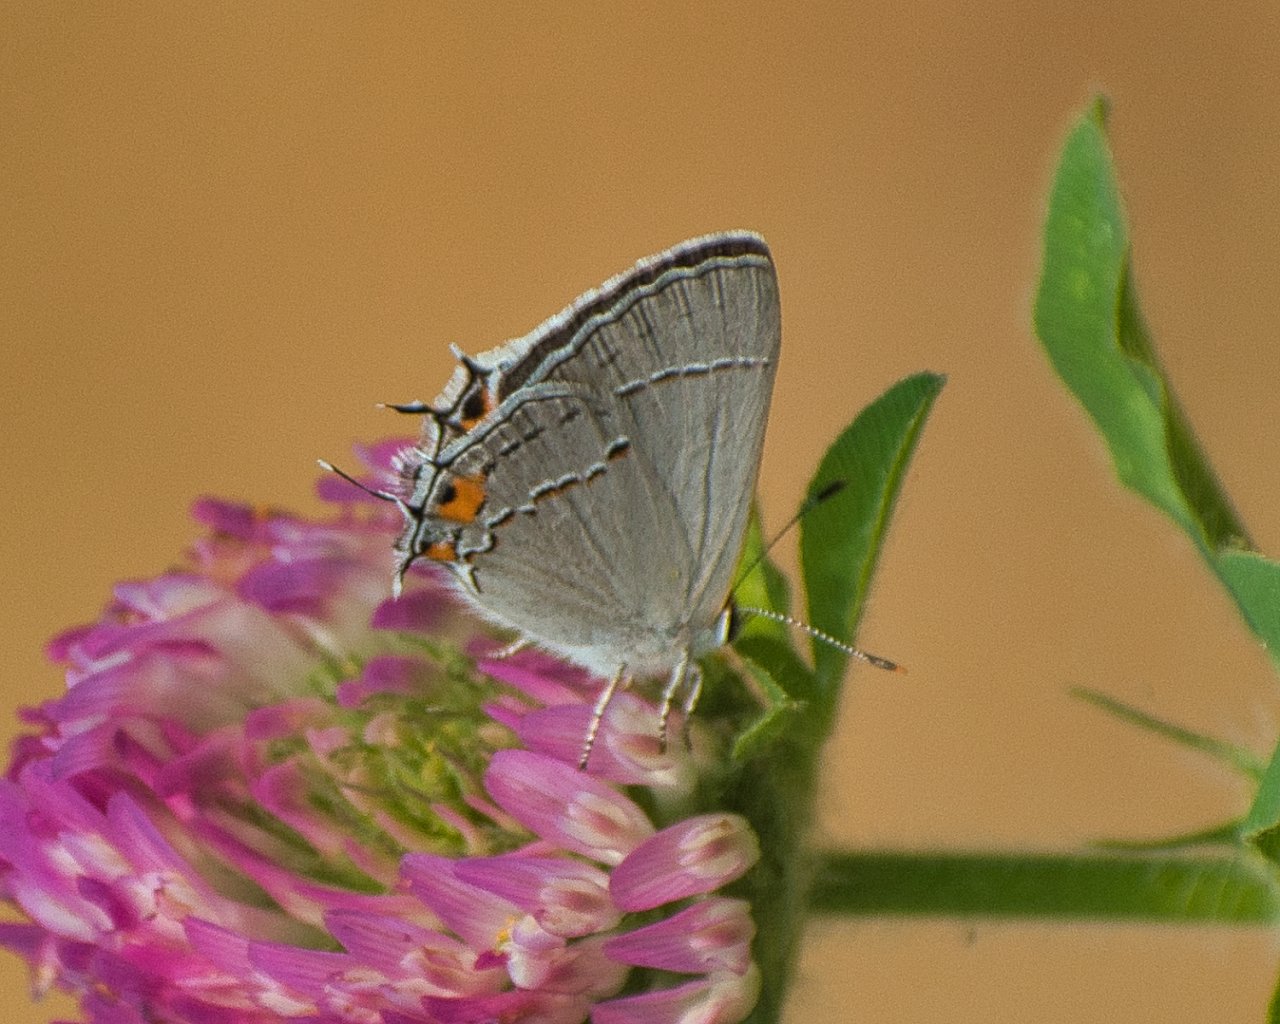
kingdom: Animalia
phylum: Arthropoda
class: Insecta
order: Lepidoptera
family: Lycaenidae
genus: Strymon
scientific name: Strymon melinus
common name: Gray Hairstreak
